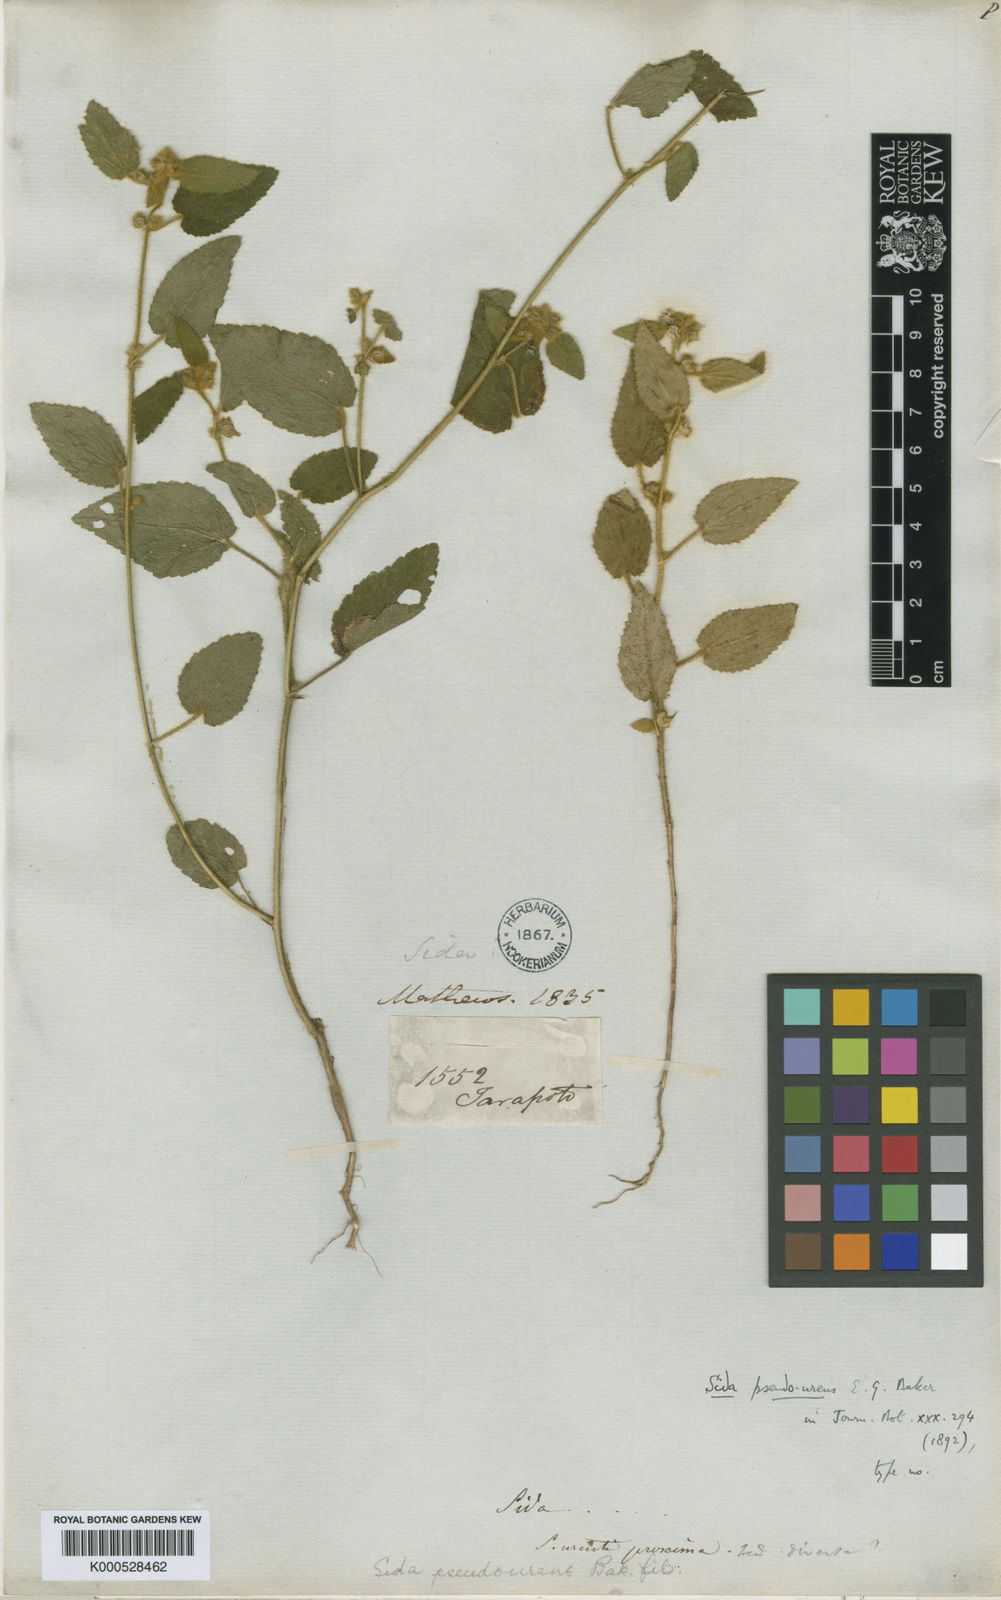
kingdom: Plantae
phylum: Tracheophyta
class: Magnoliopsida
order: Malvales
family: Malvaceae
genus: Sida
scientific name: Sida rufescens
